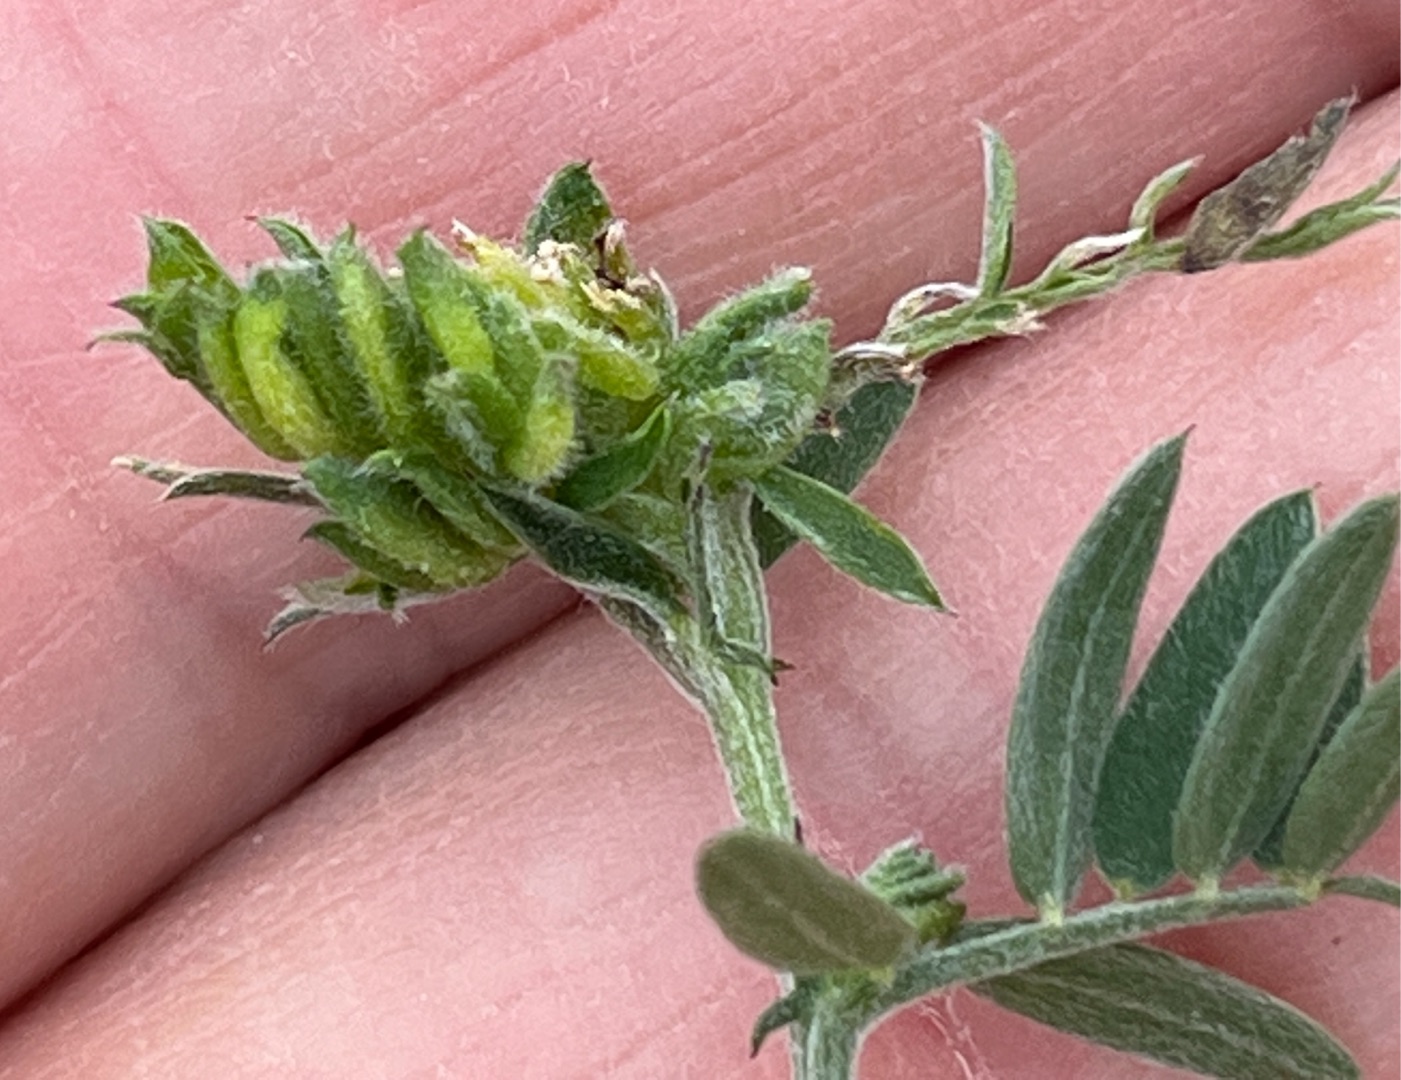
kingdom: Animalia
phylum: Arthropoda
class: Insecta
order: Diptera
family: Cecidomyiidae
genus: Dasineura
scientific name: Dasineura spadicea
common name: Musevikkegalmyg
